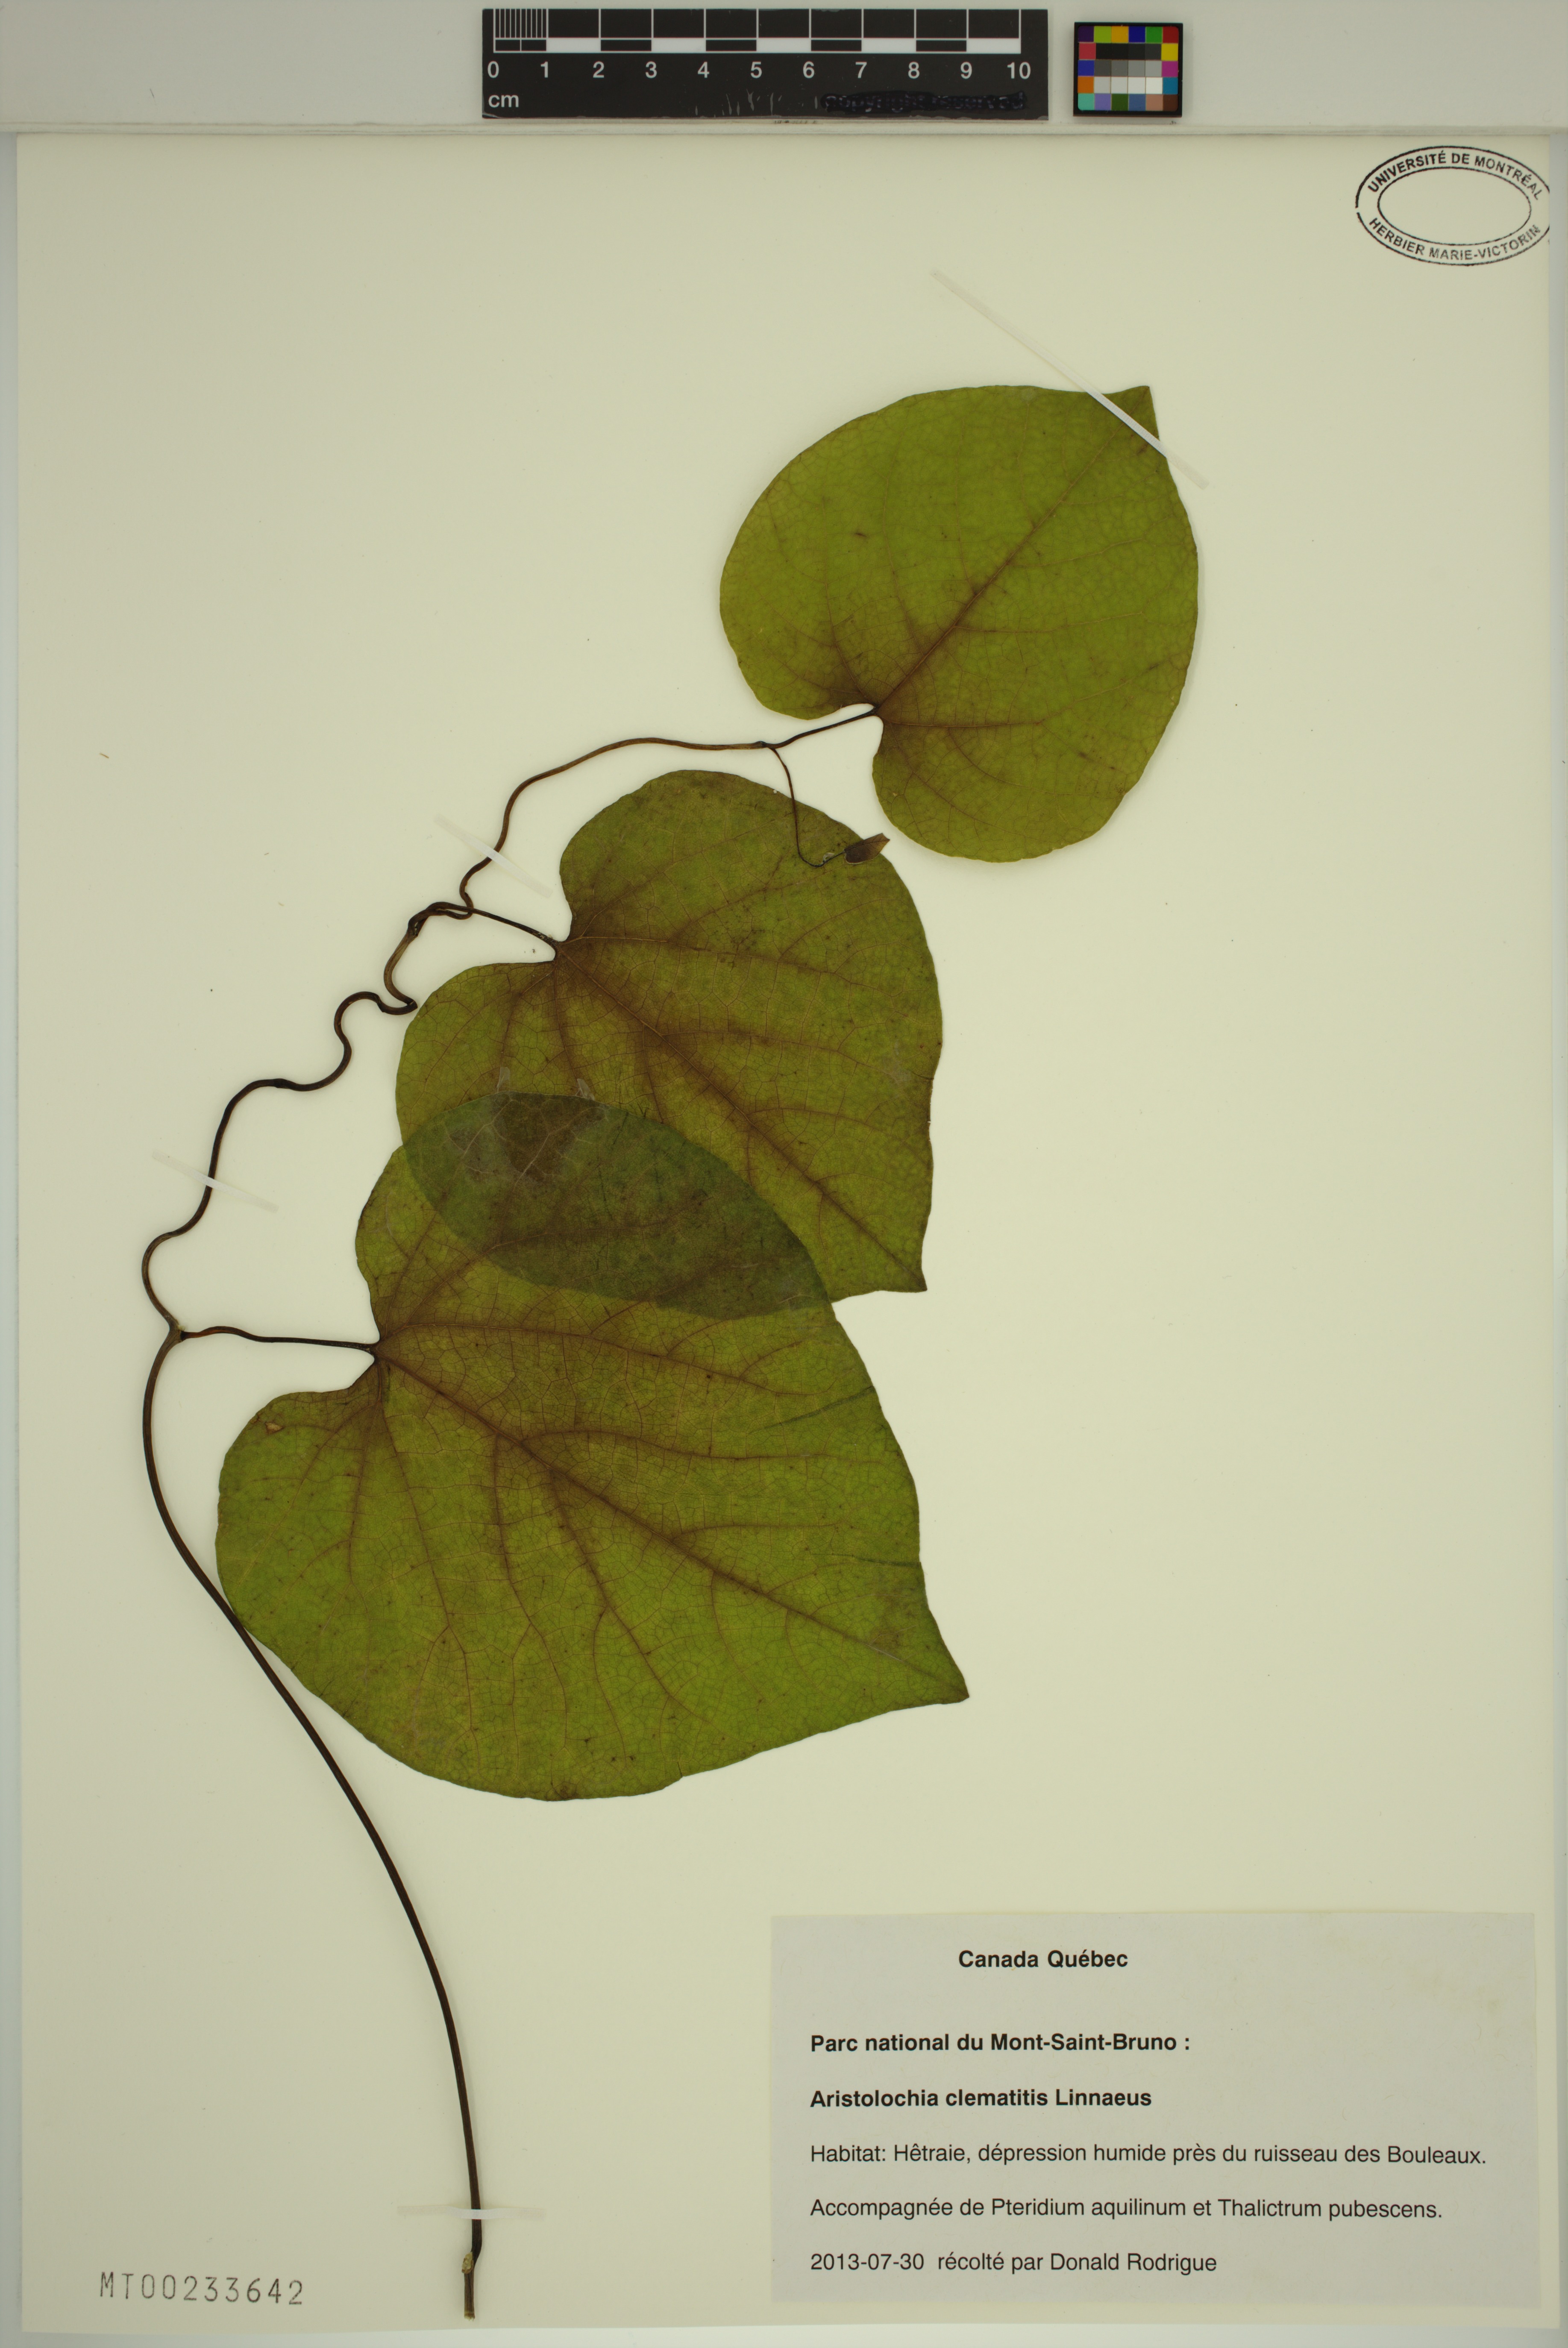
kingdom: Plantae
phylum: Tracheophyta
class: Magnoliopsida
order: Piperales
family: Aristolochiaceae
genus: Aristolochia
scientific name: Aristolochia clematitis
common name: Birthwort
